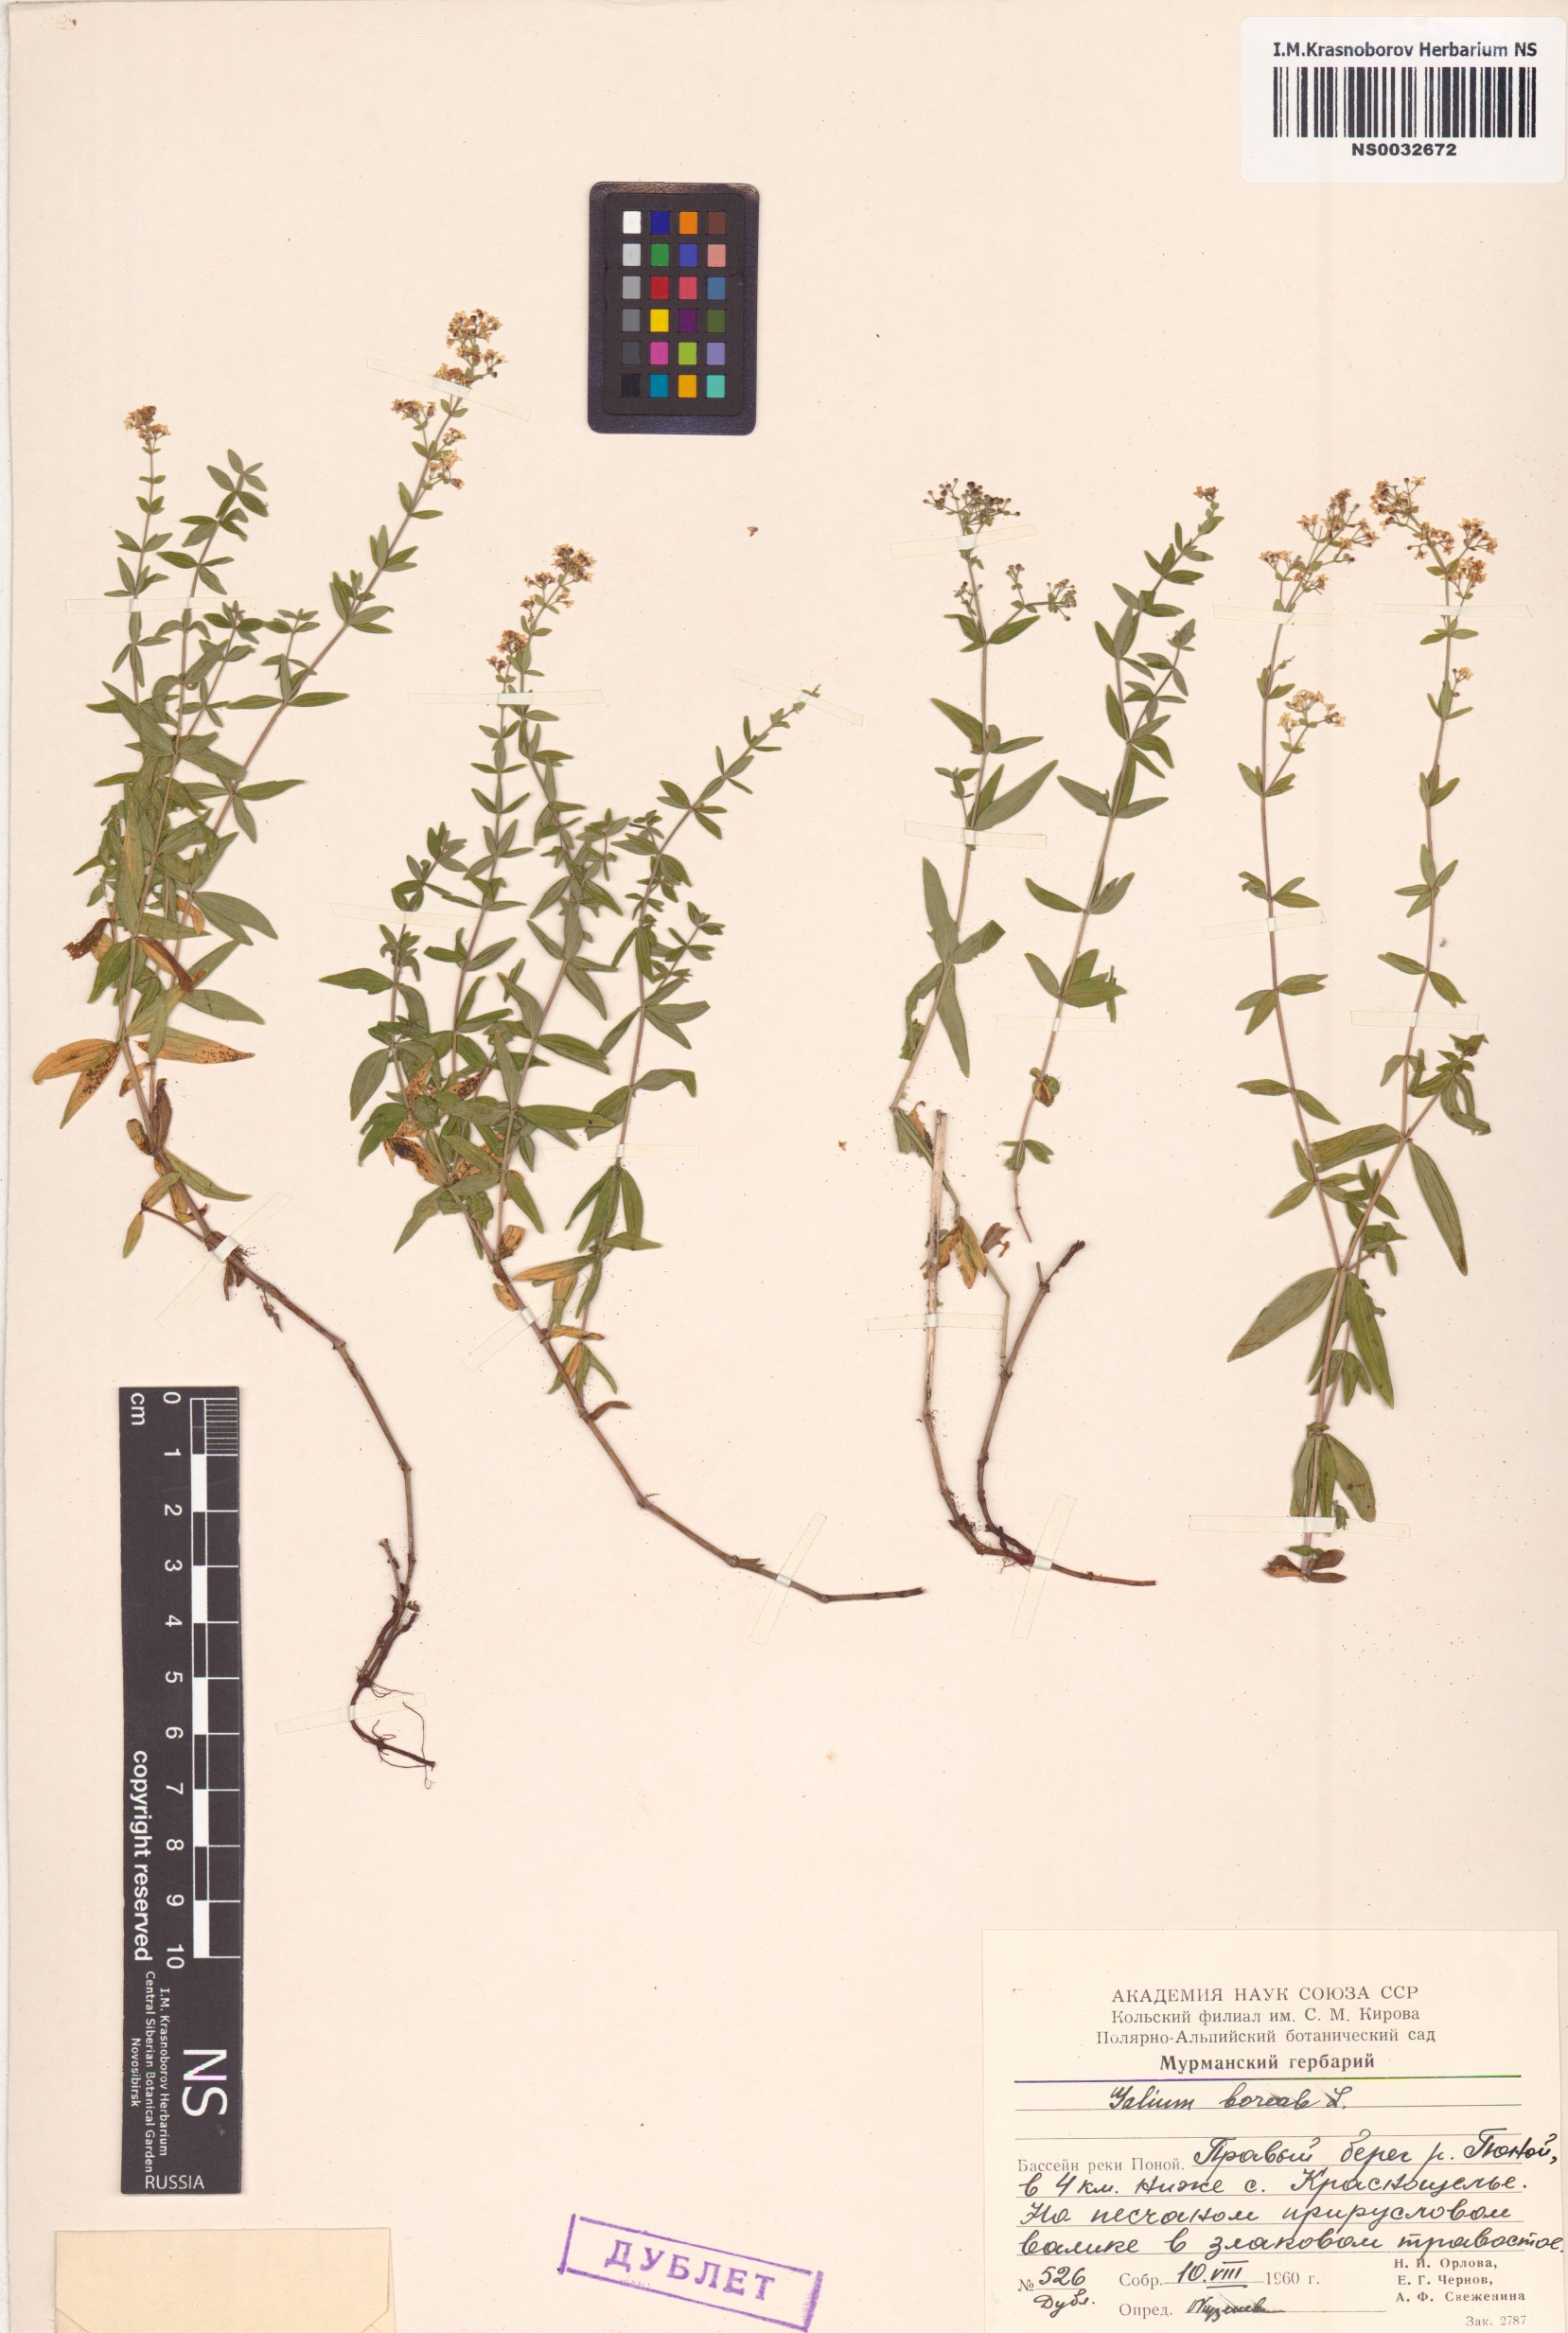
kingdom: Plantae
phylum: Tracheophyta
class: Magnoliopsida
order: Gentianales
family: Rubiaceae
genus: Galium
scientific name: Galium boreale
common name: Northern bedstraw
